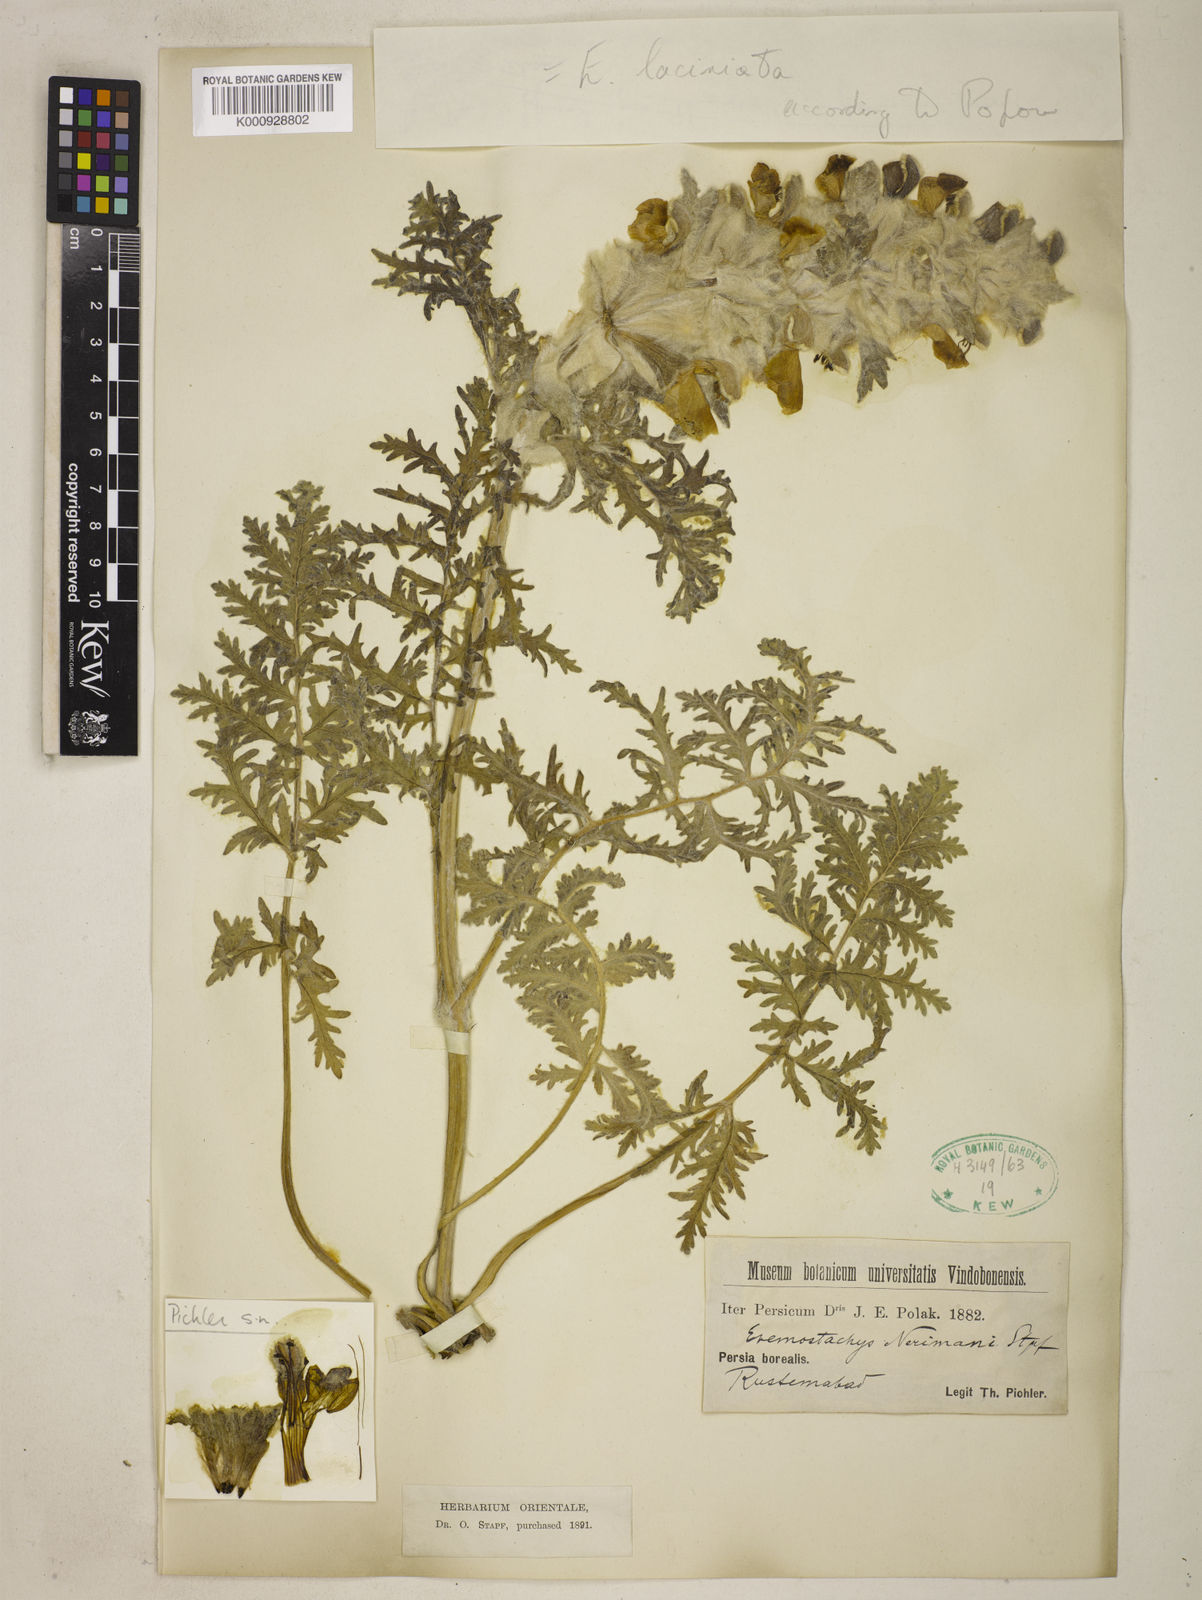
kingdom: Plantae
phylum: Tracheophyta
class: Magnoliopsida
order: Lamiales
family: Lamiaceae
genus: Phlomoides
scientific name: Phlomoides laciniata
